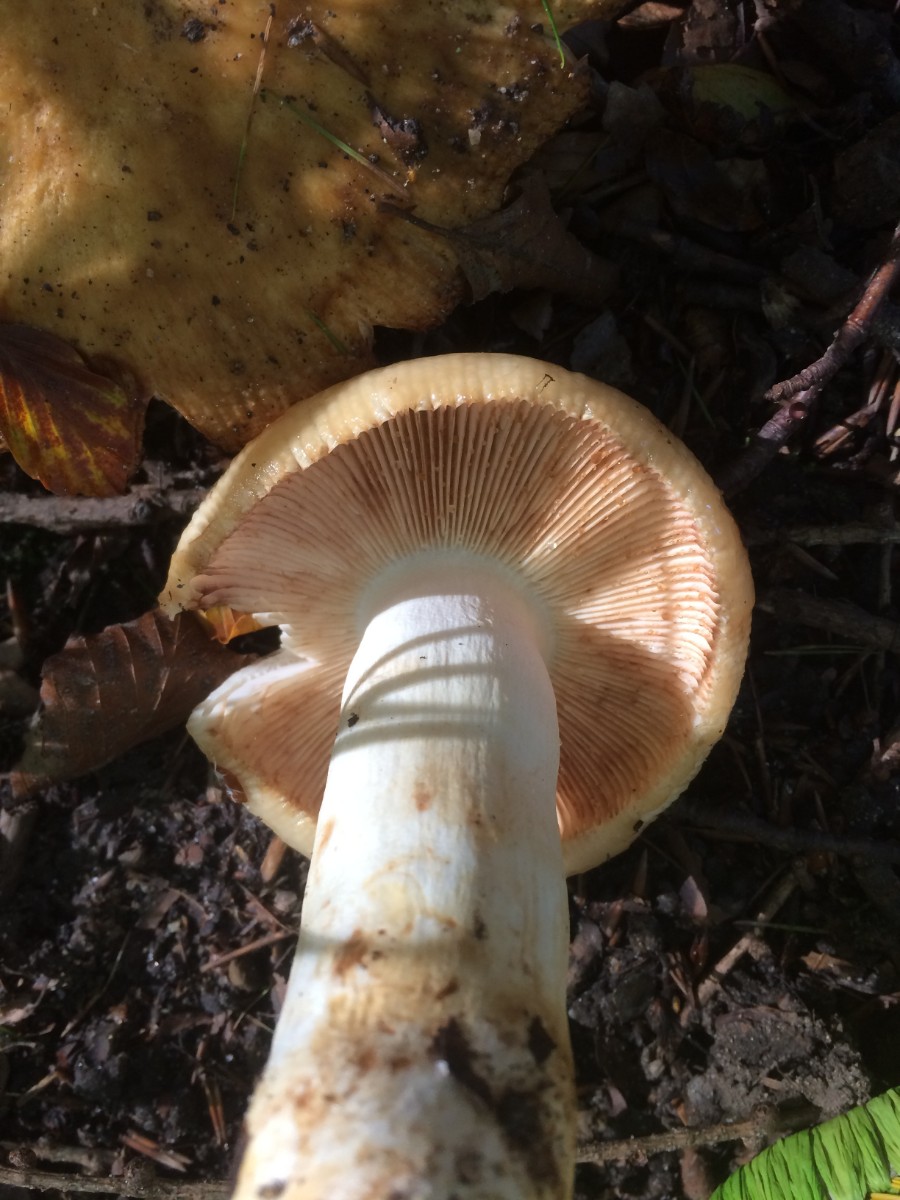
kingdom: Fungi
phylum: Basidiomycota
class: Agaricomycetes
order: Russulales
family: Russulaceae
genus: Russula
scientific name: Russula foetens
